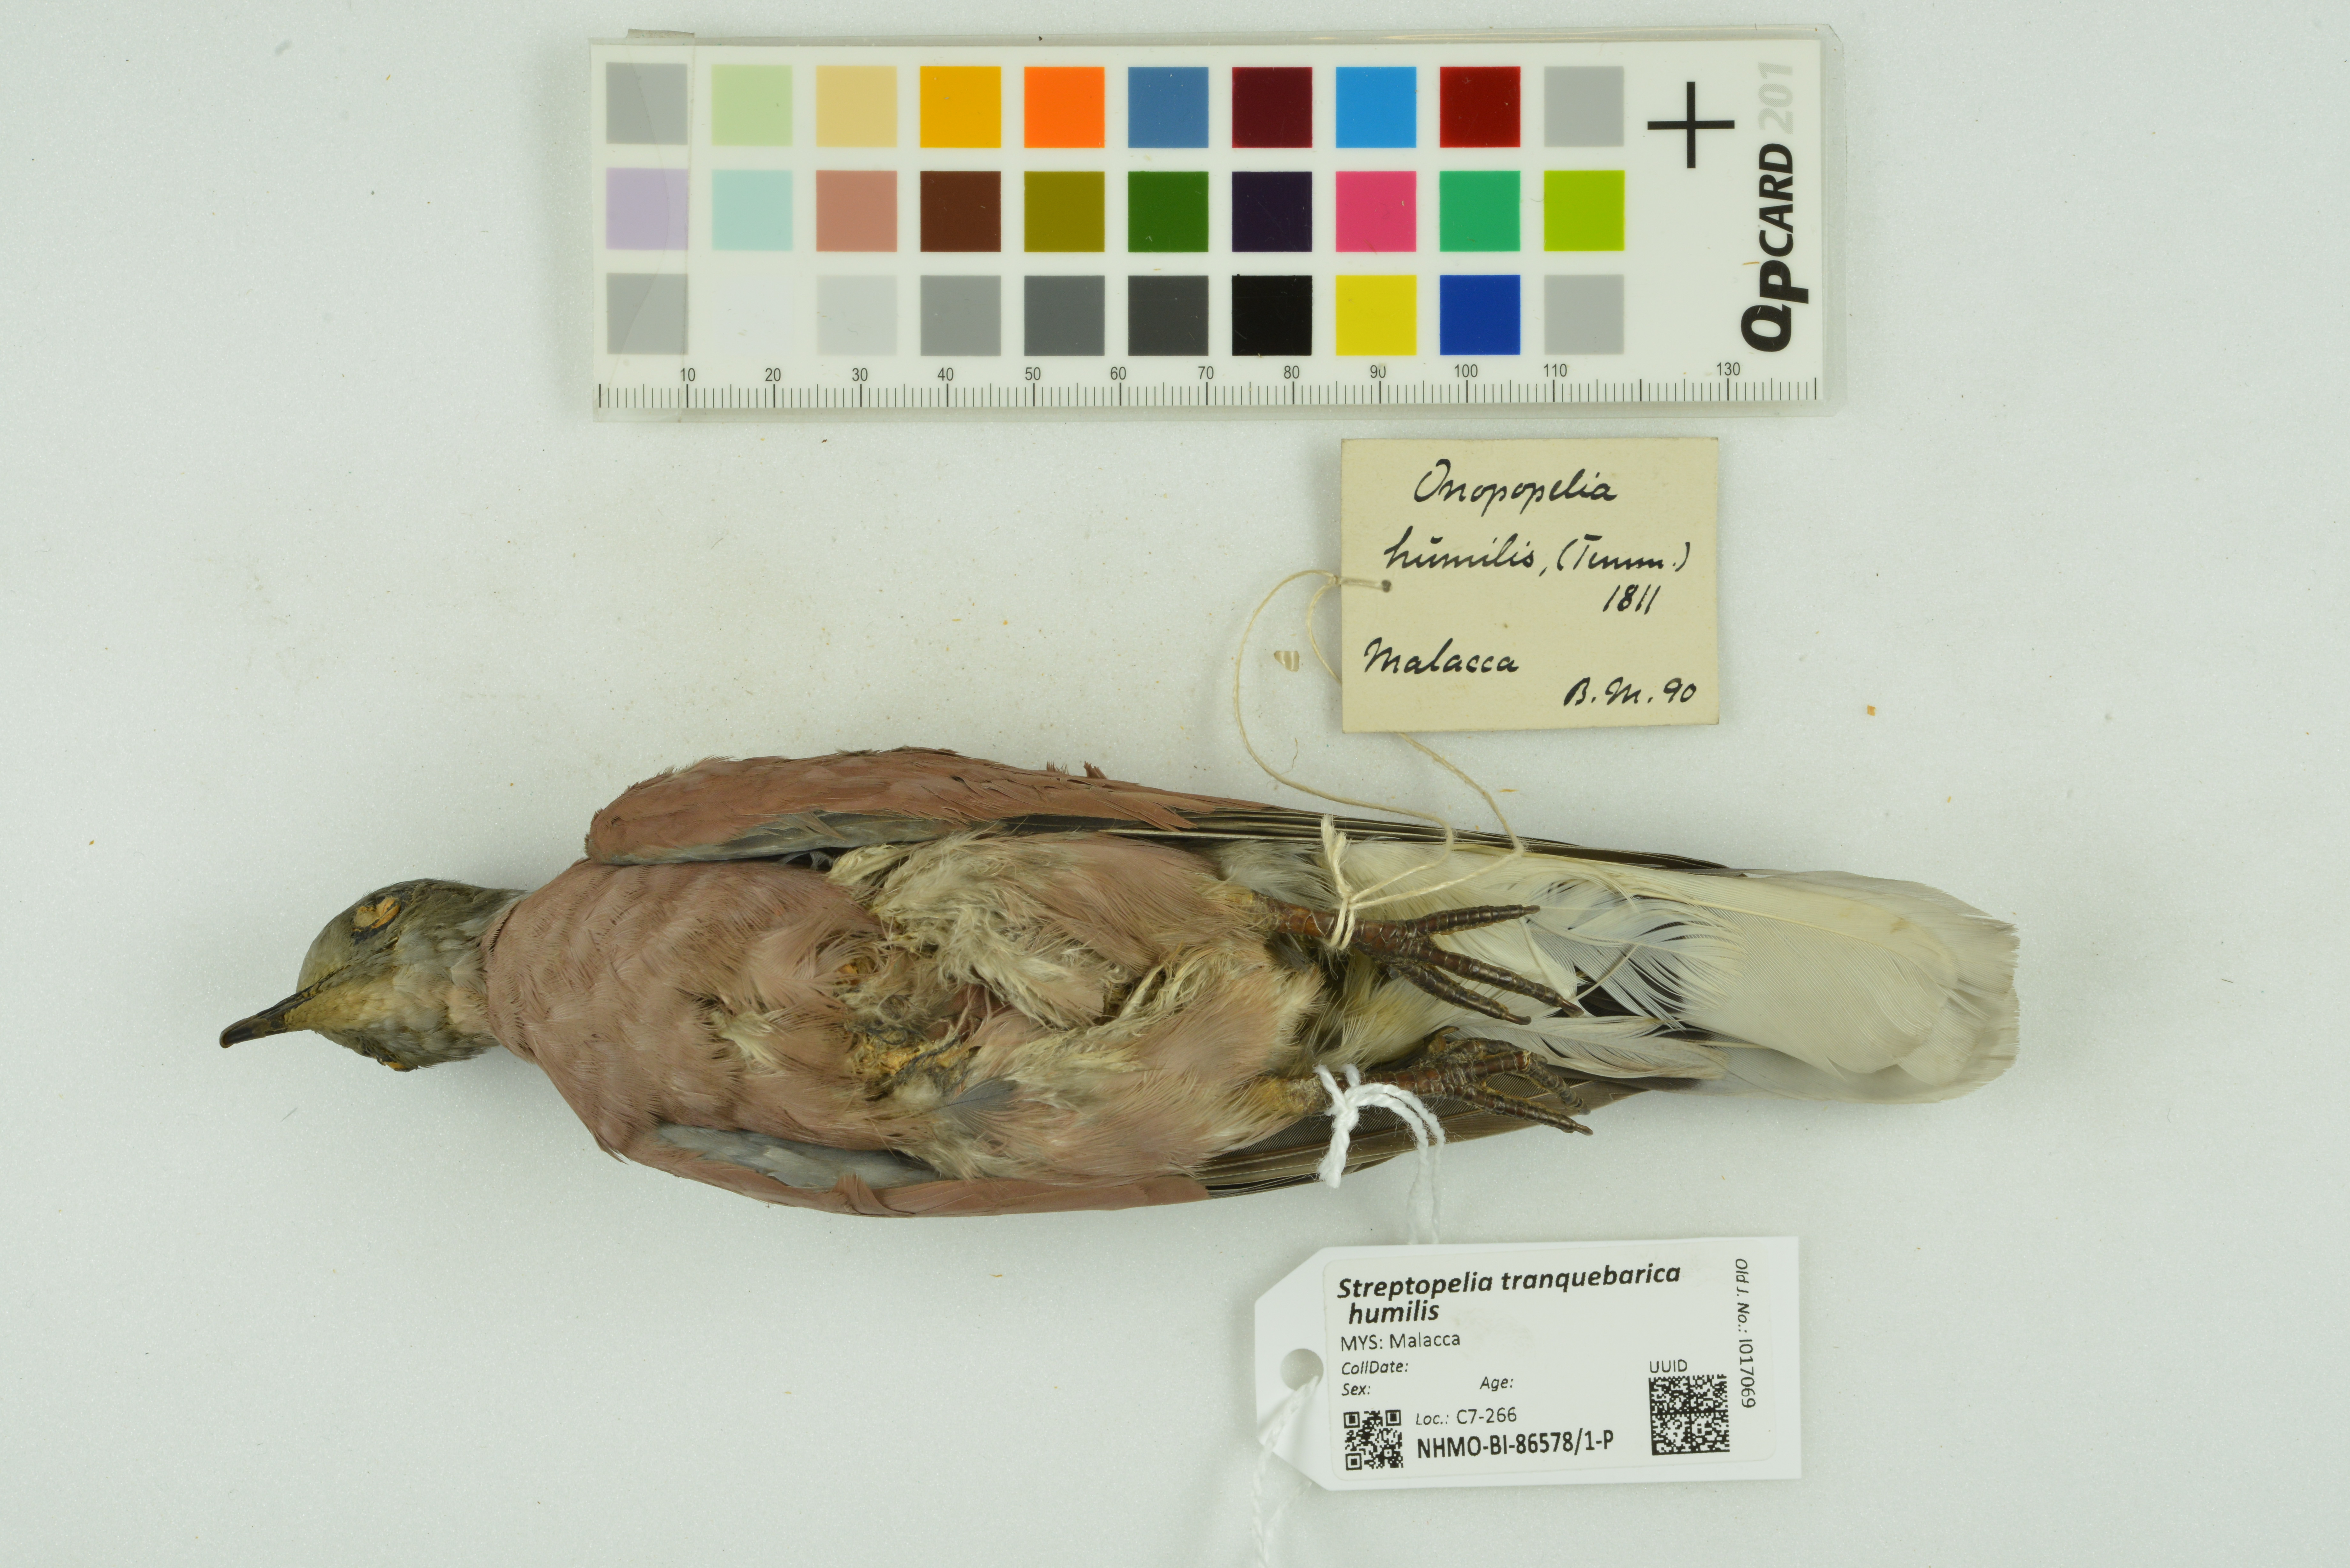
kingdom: Animalia
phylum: Chordata
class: Aves
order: Columbiformes
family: Columbidae
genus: Streptopelia
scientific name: Streptopelia tranquebarica
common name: Red turtle dove
